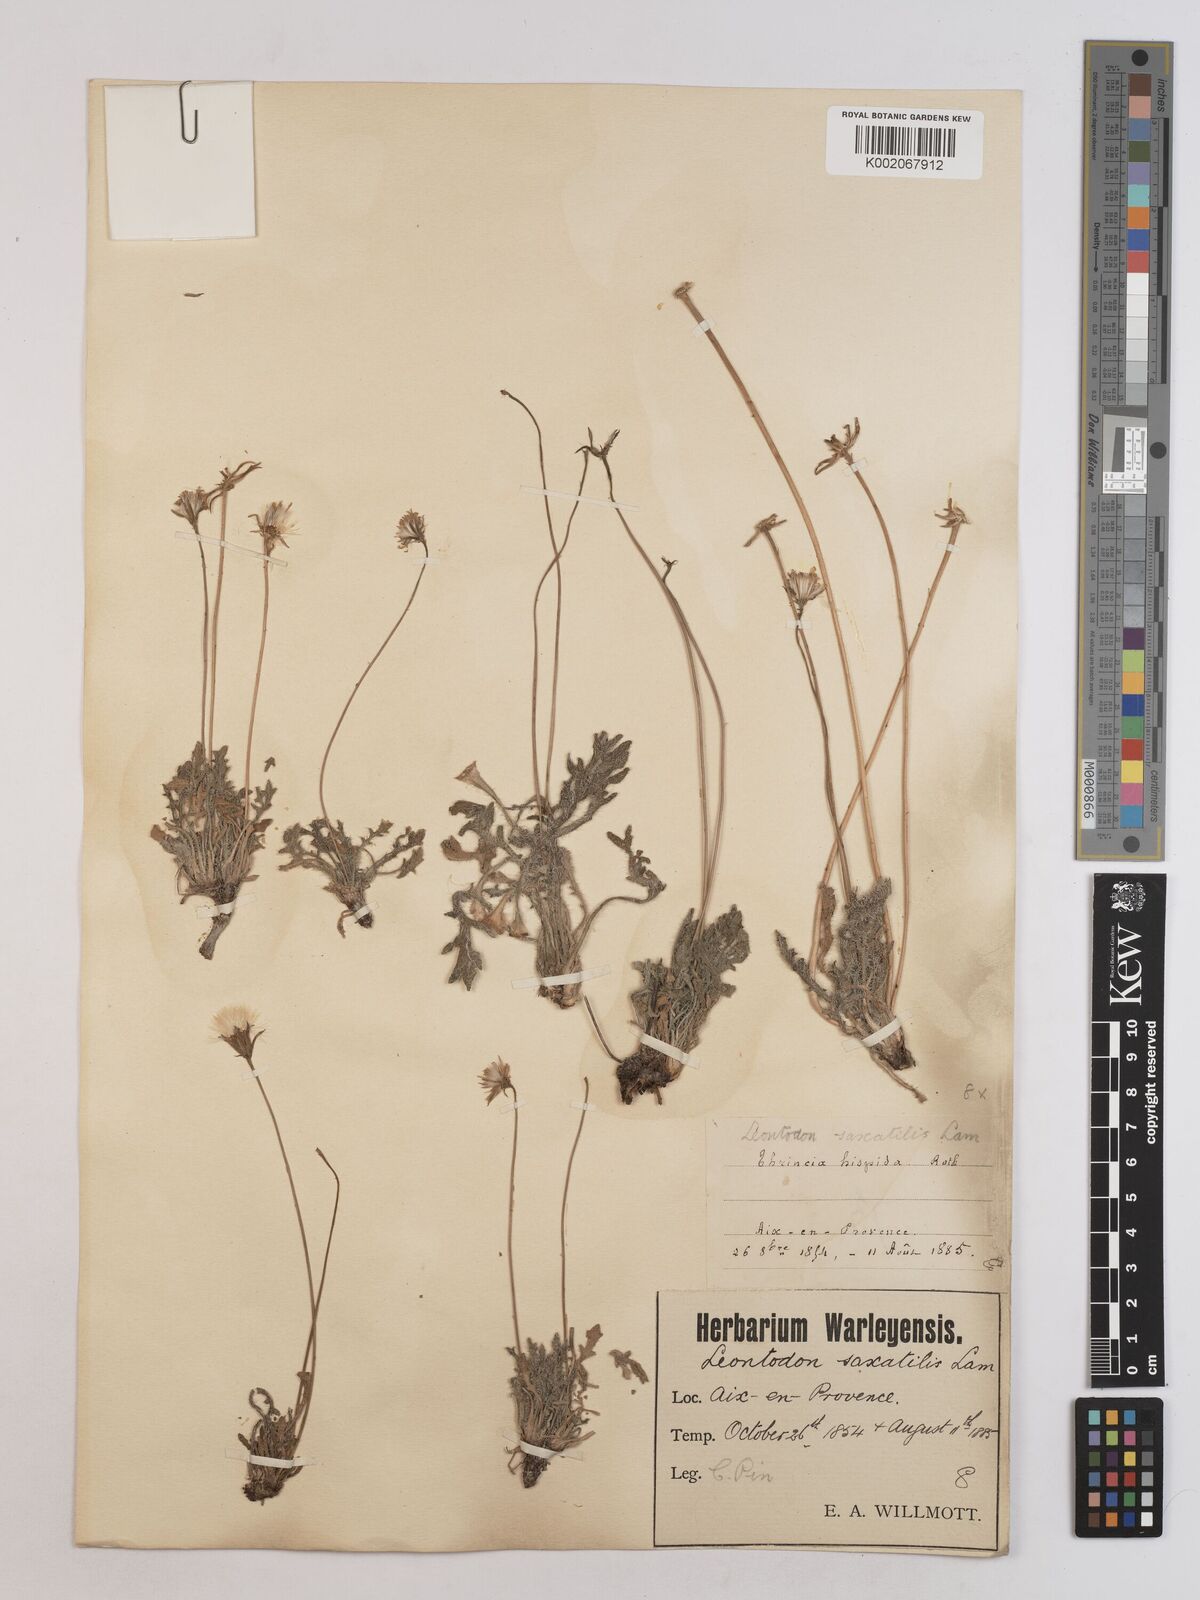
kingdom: Plantae
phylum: Tracheophyta
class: Magnoliopsida
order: Asterales
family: Asteraceae
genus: Leontodon
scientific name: Leontodon hirtus
